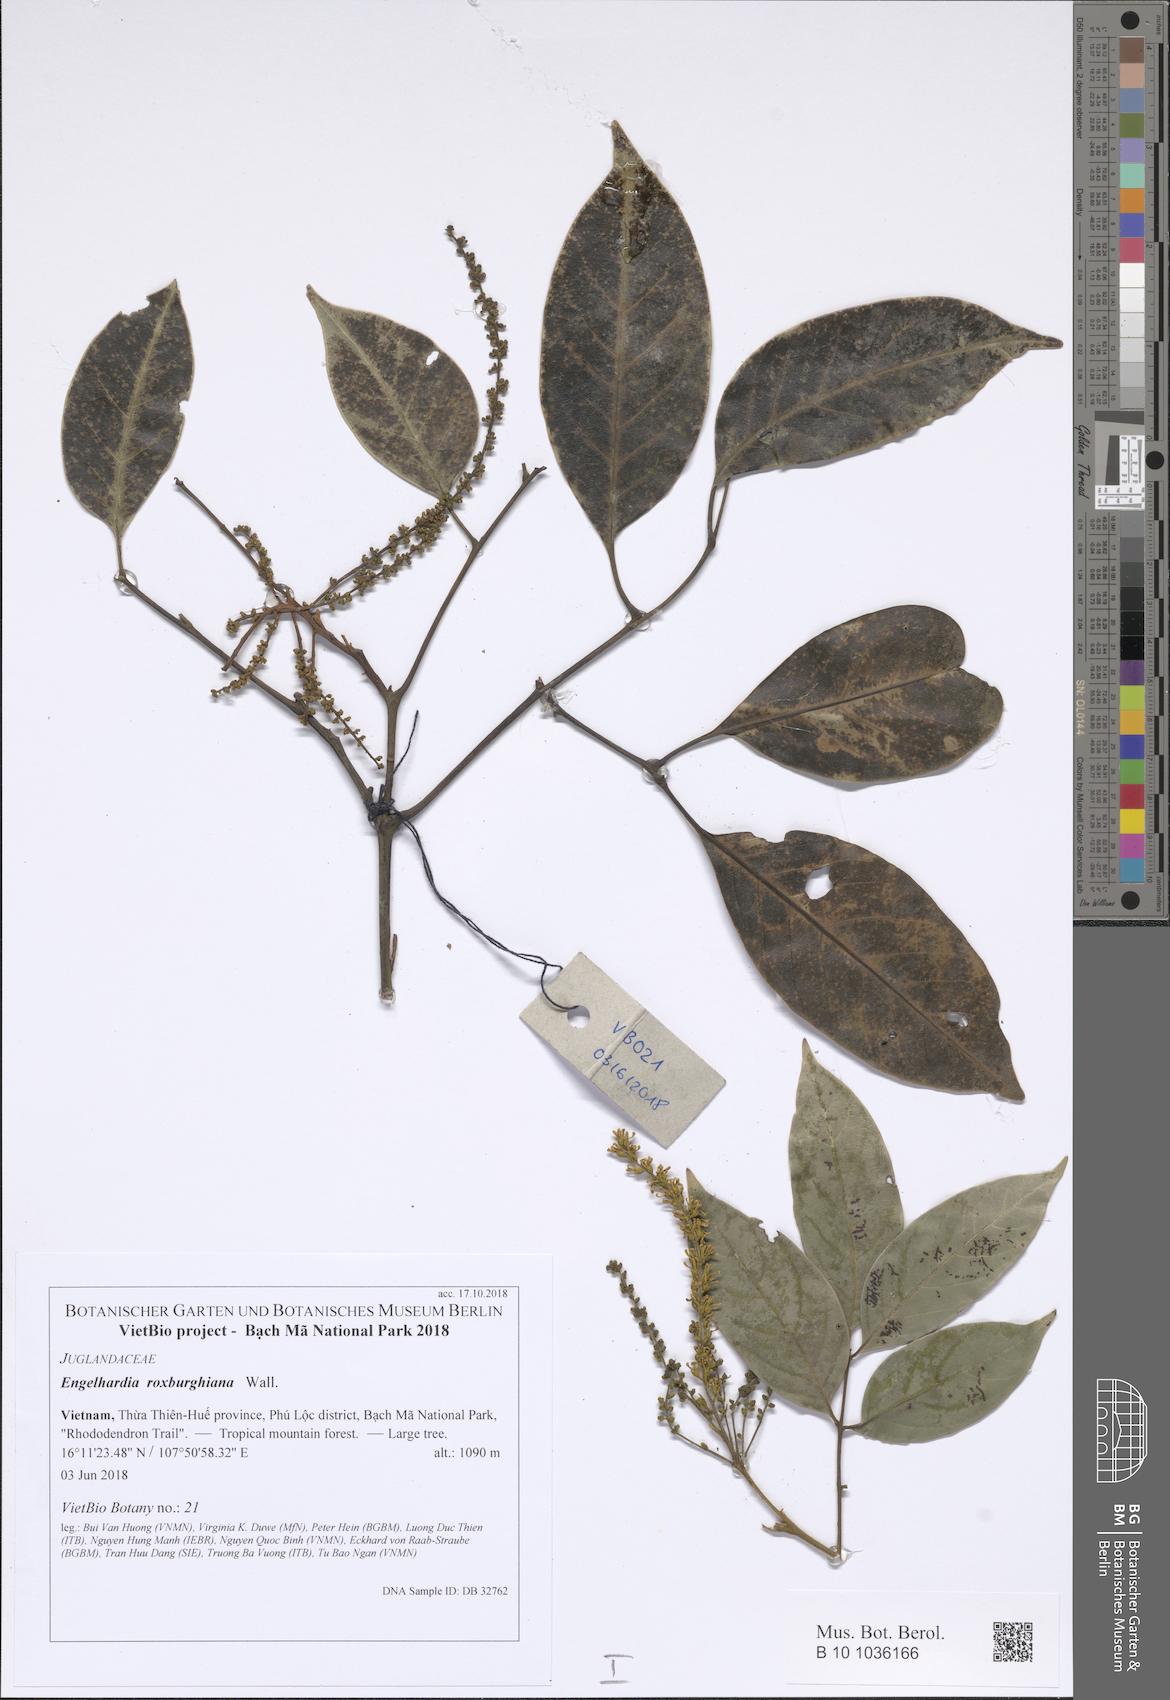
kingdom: Plantae
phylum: Tracheophyta
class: Magnoliopsida
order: Fagales
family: Juglandaceae
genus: Engelhardia
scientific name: Engelhardia roxburghiana
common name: Golden malay beam
